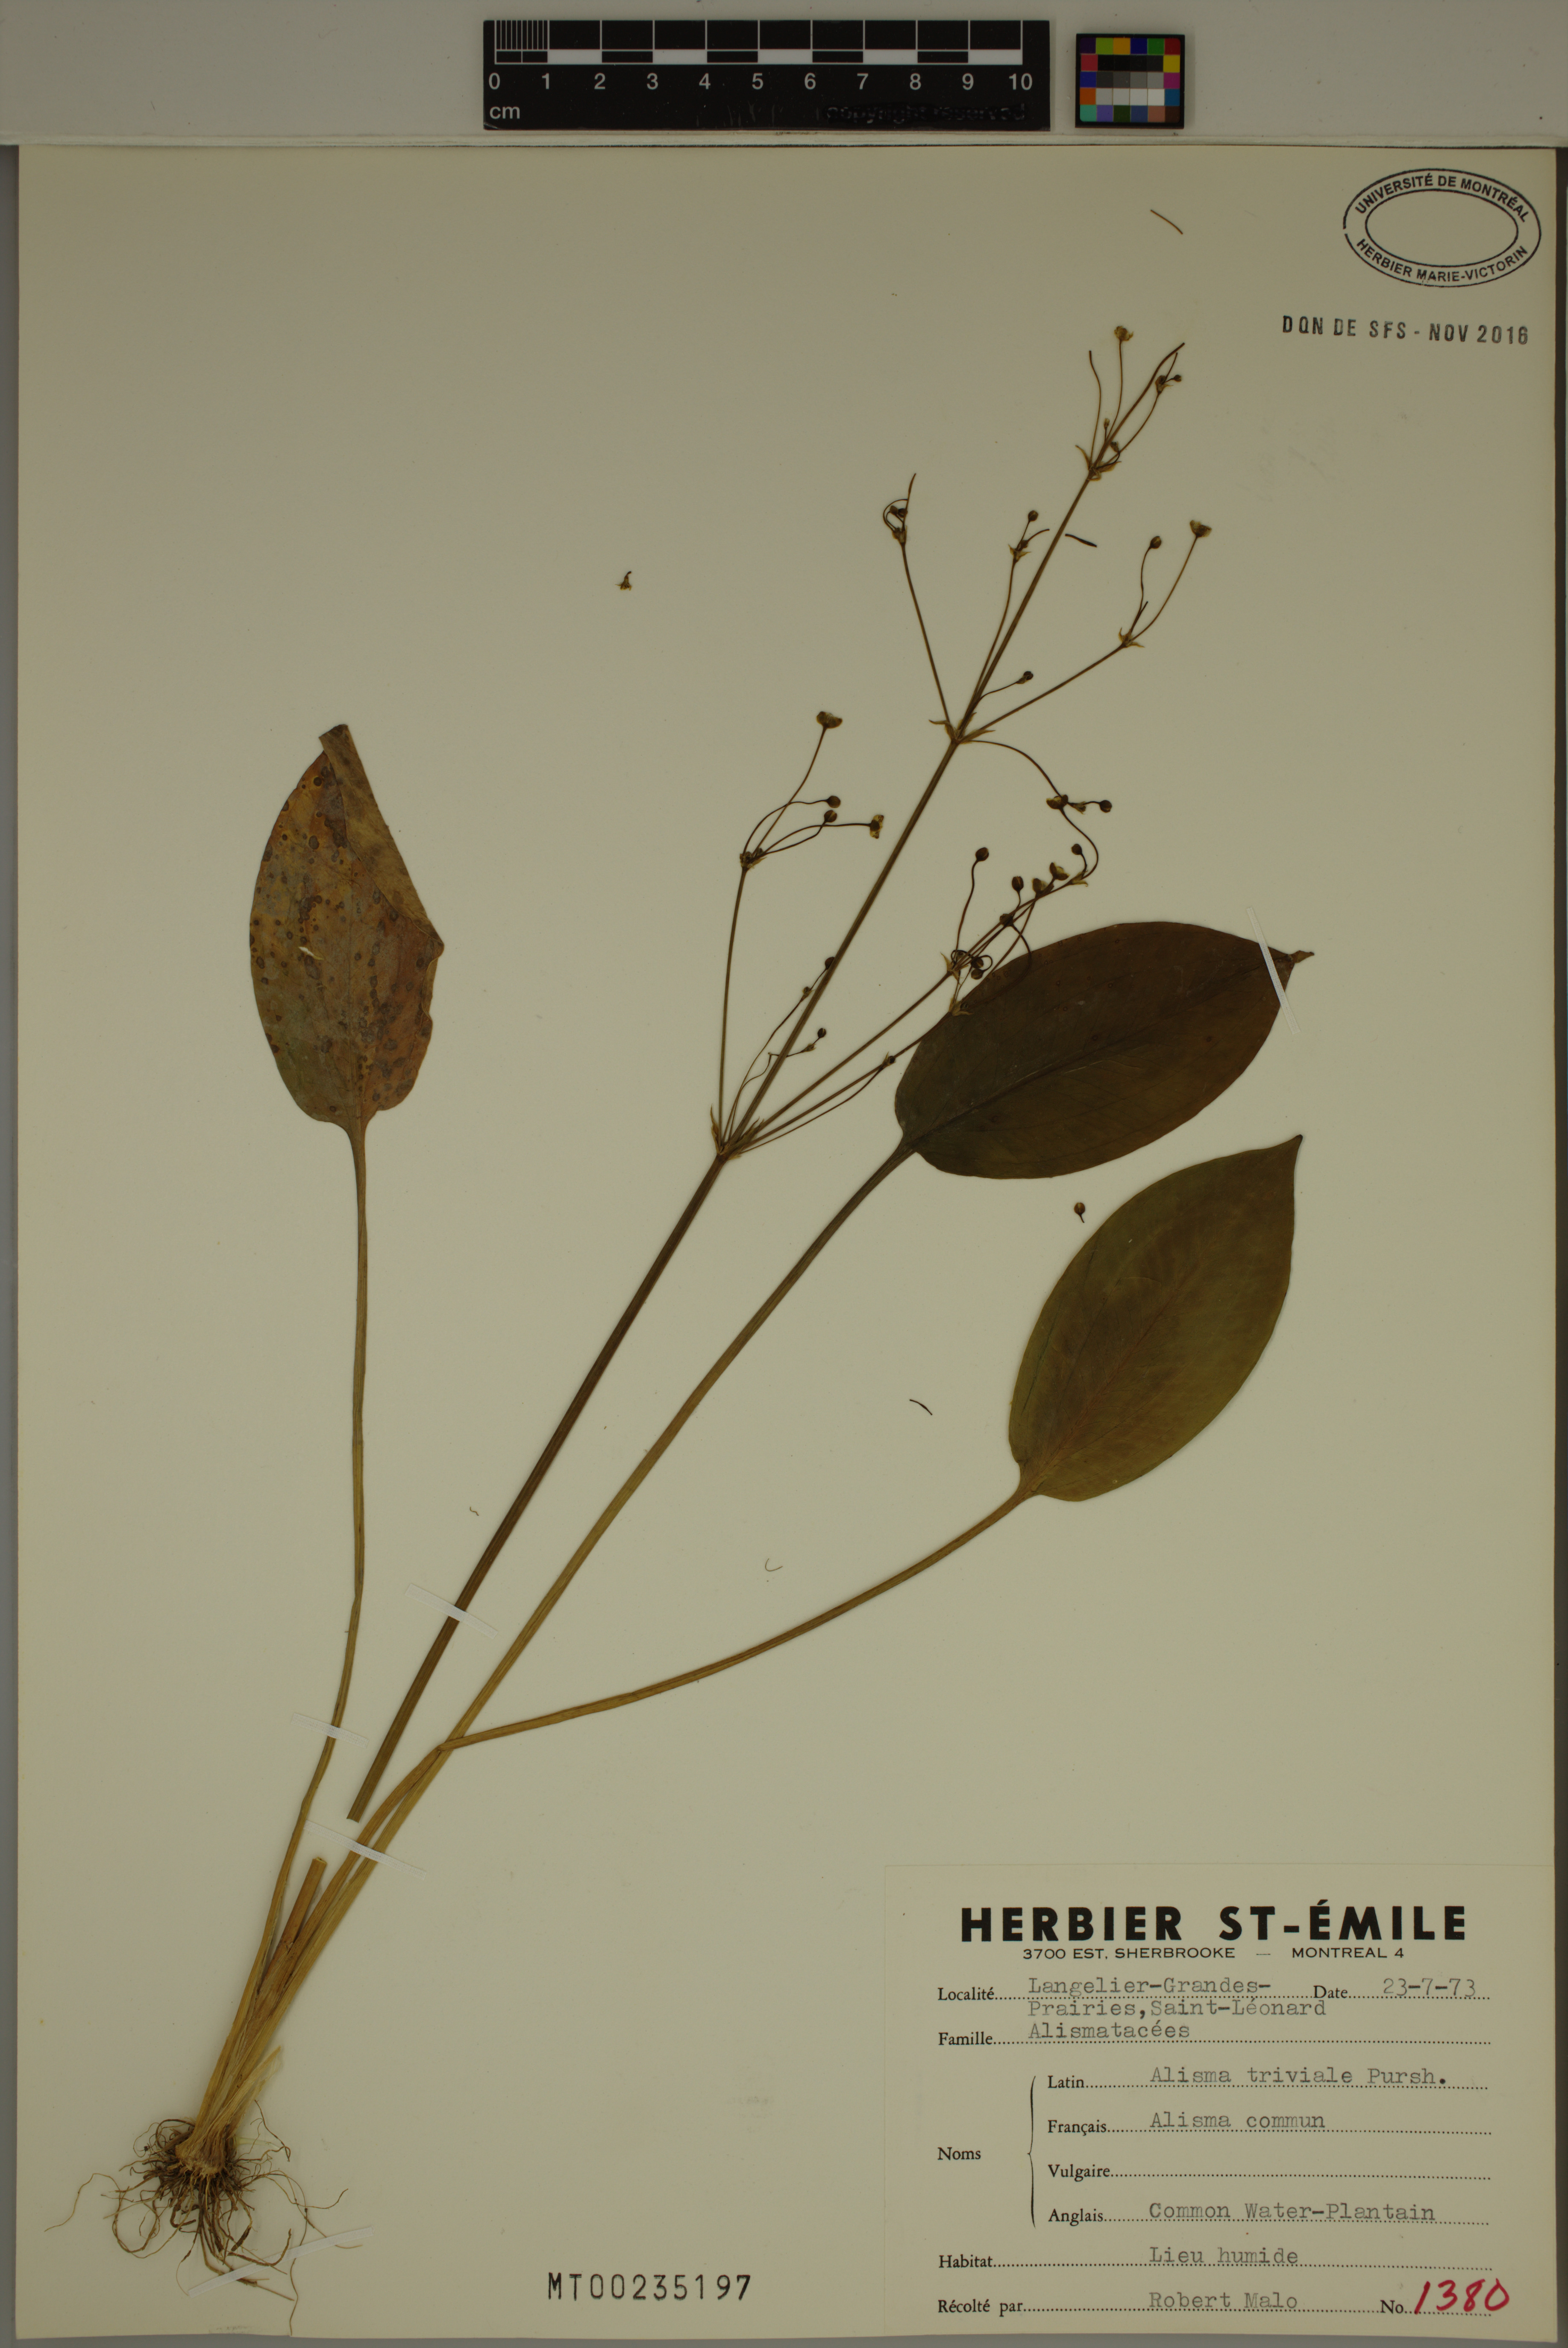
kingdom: Plantae
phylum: Tracheophyta
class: Liliopsida
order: Alismatales
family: Alismataceae
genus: Alisma
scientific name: Alisma triviale
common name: Northern water-plantain
